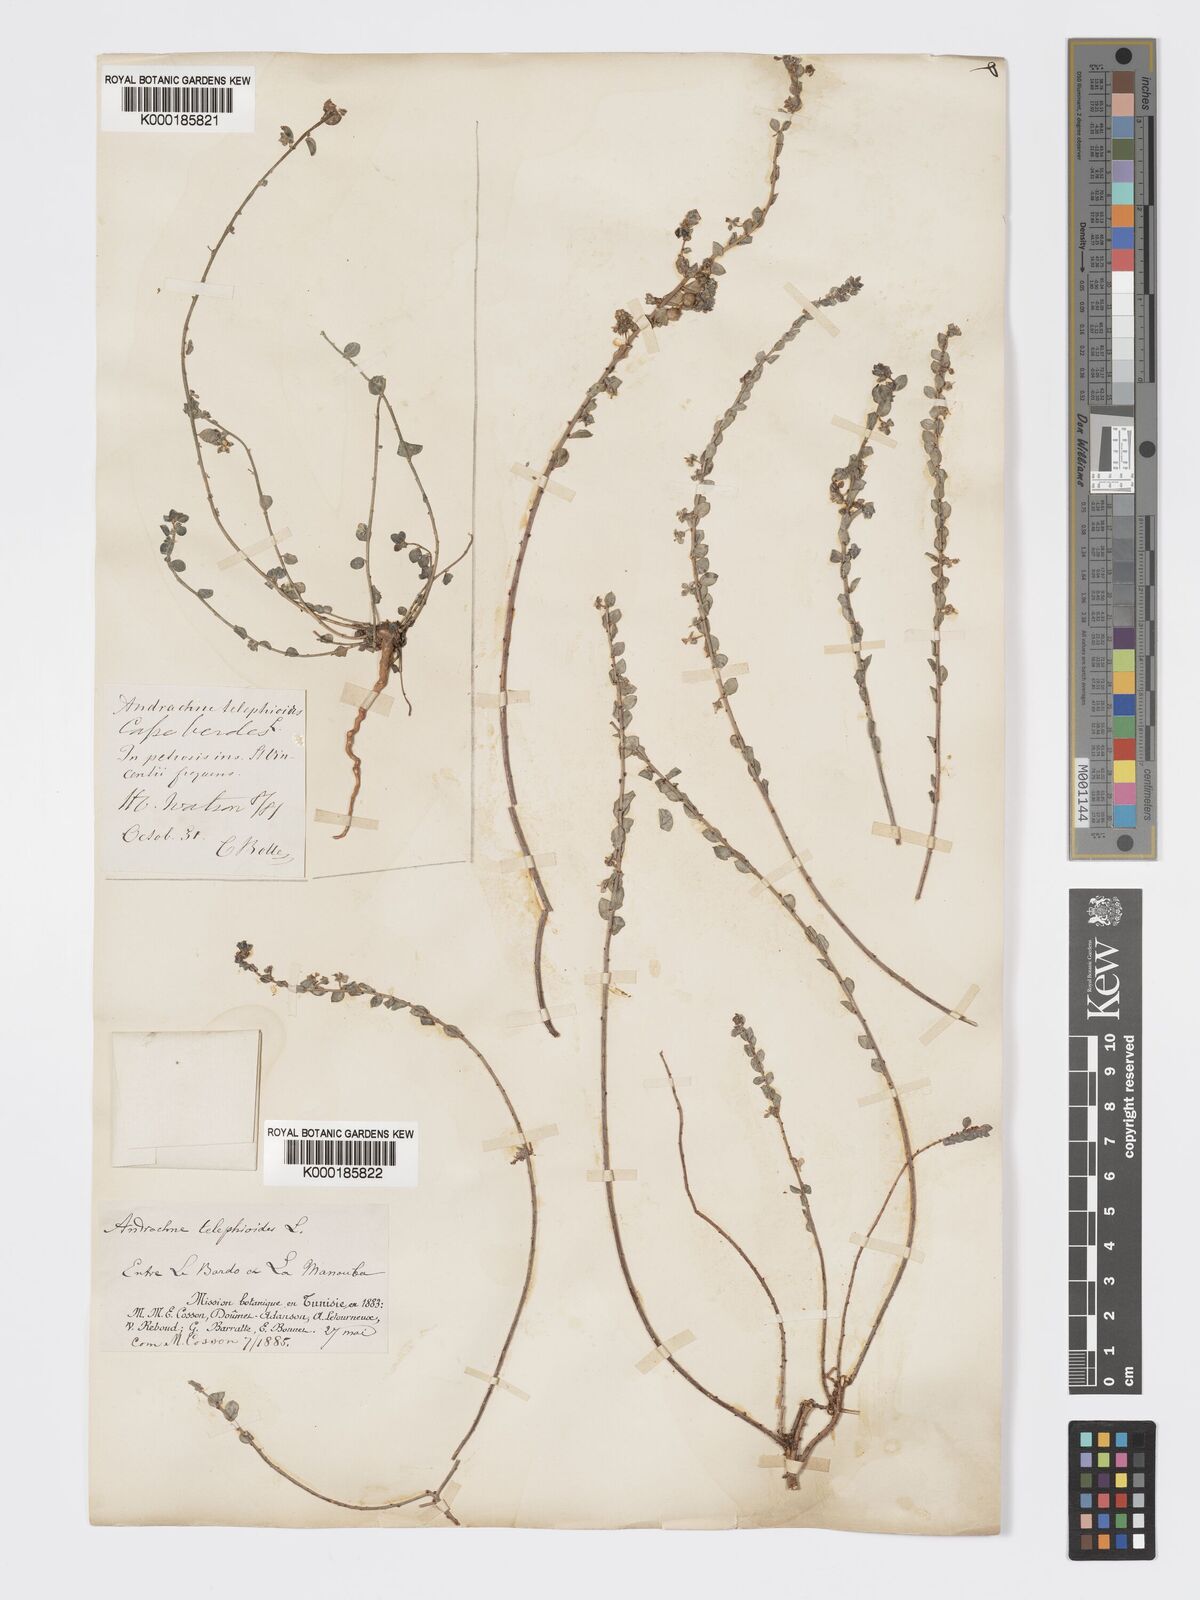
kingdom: Plantae
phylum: Tracheophyta
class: Magnoliopsida
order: Malpighiales
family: Phyllanthaceae
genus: Andrachne
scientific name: Andrachne telephioides
